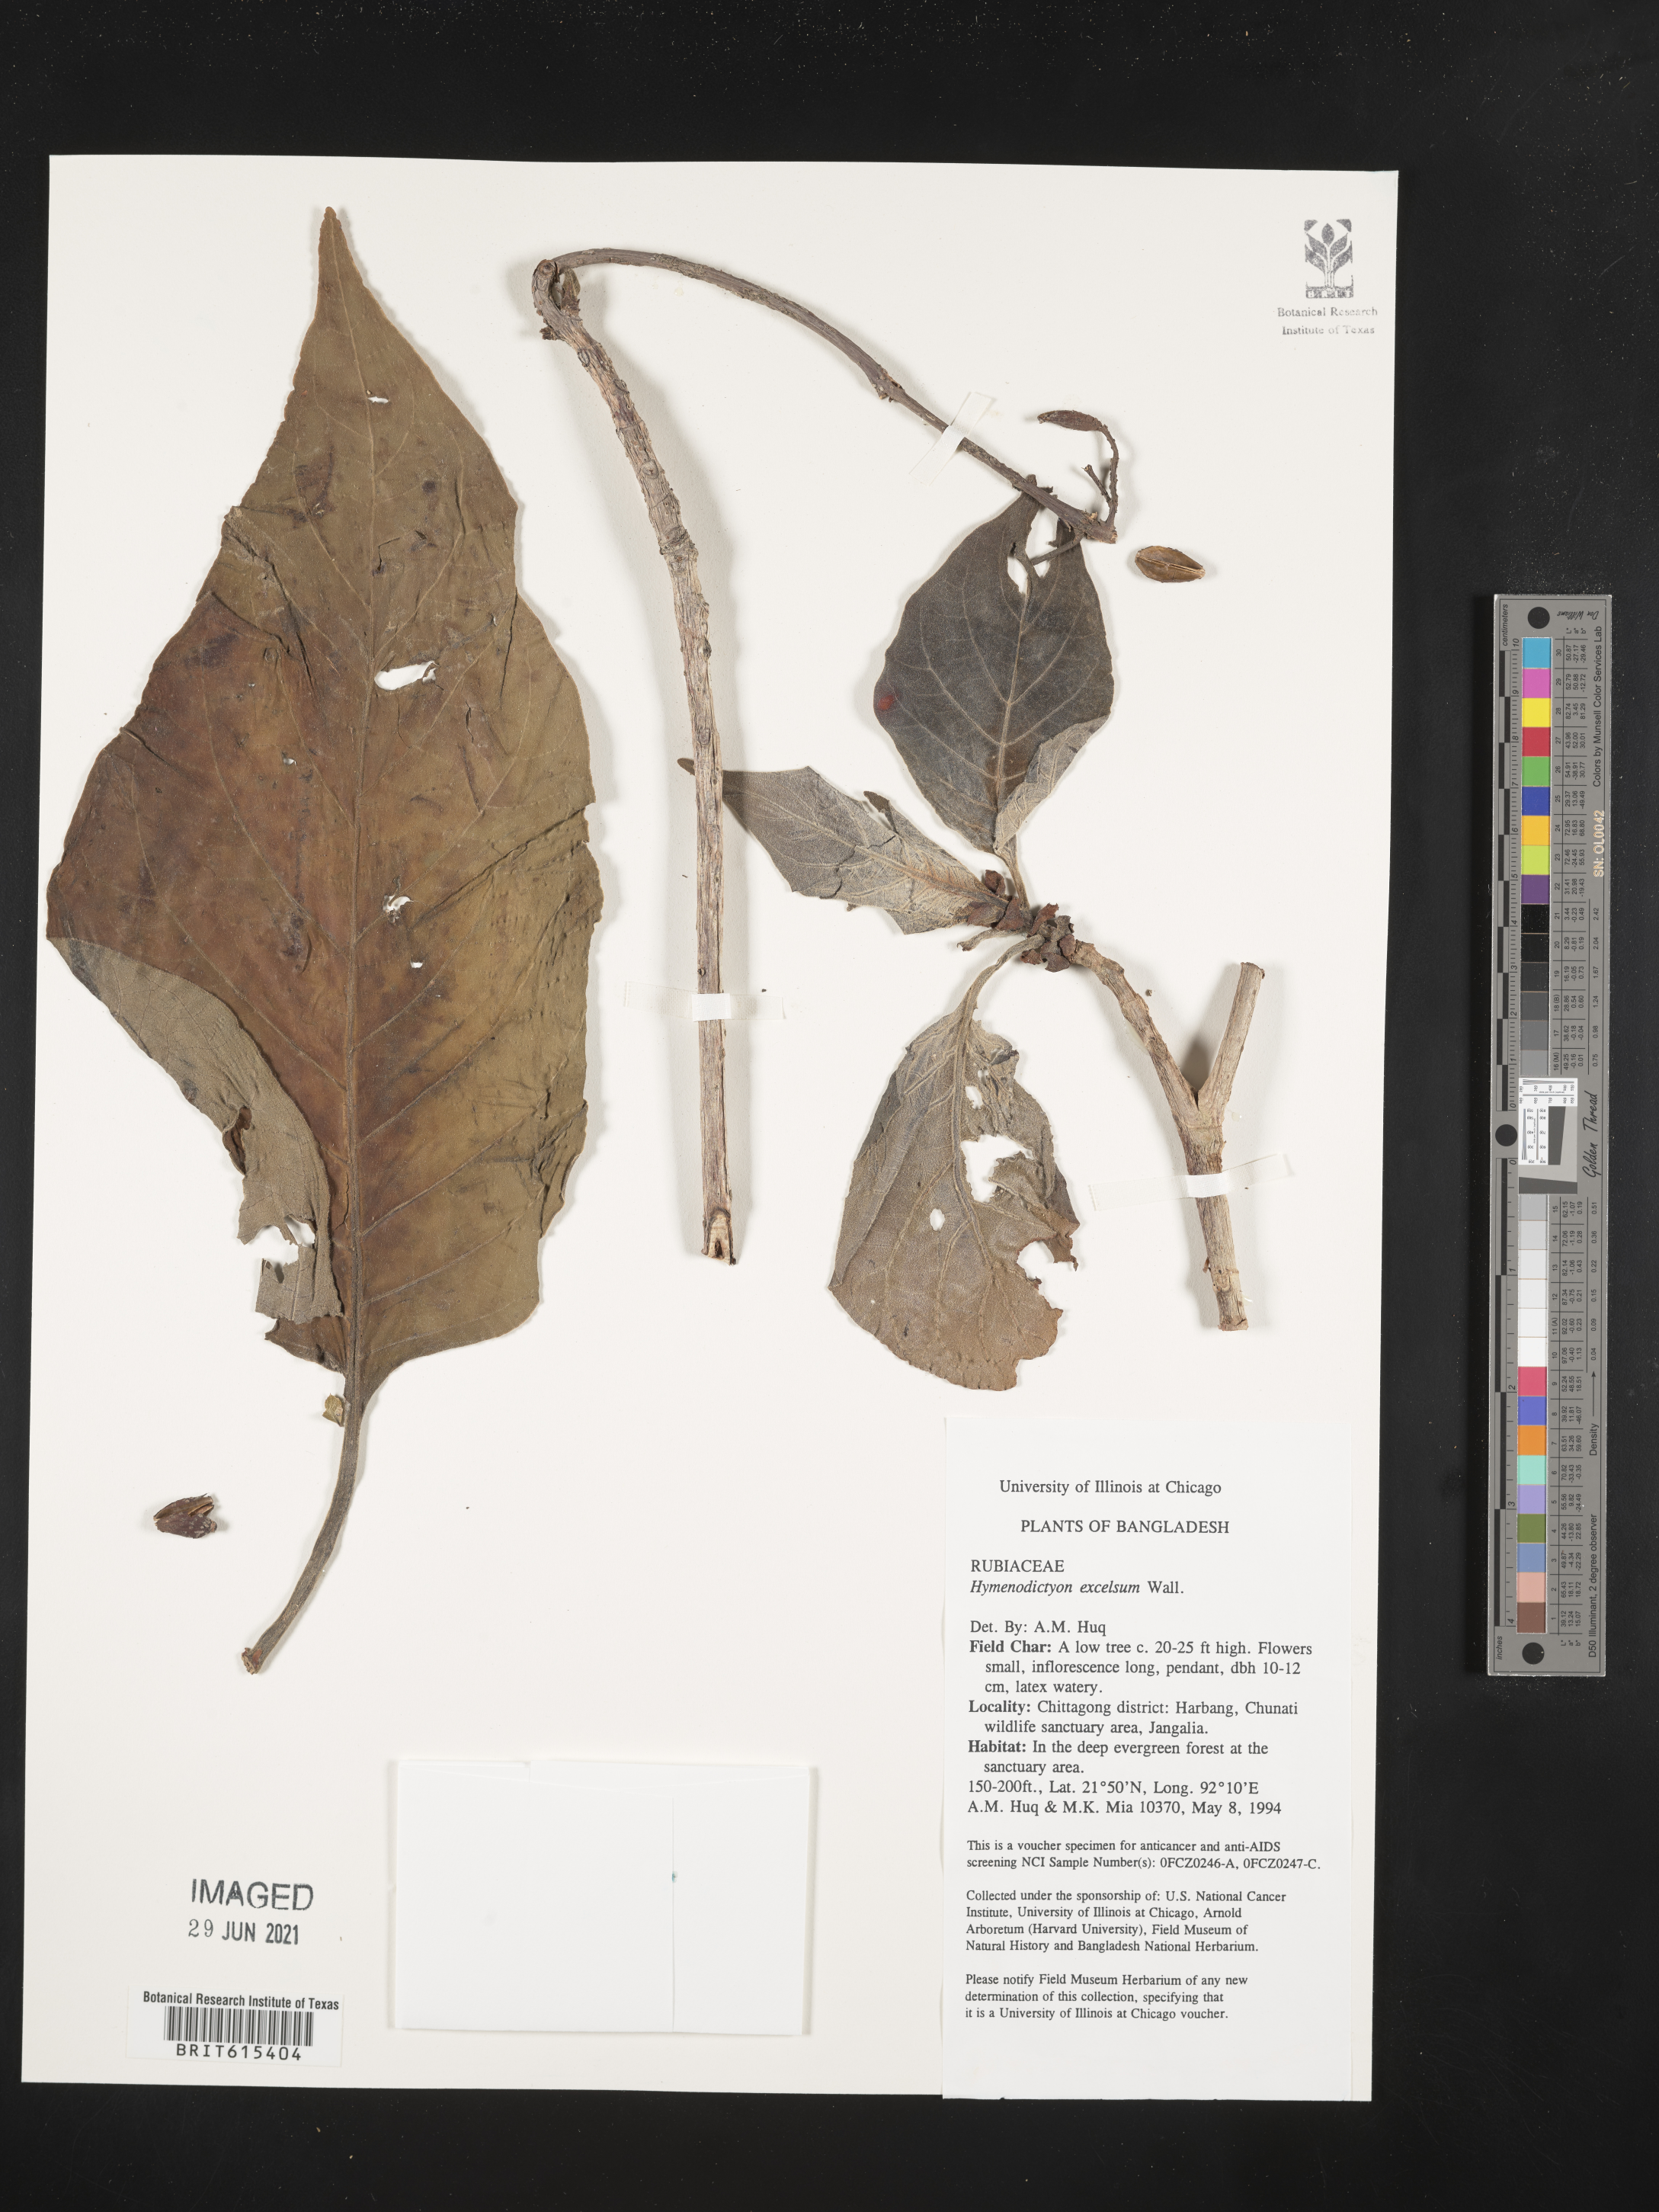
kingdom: Plantae
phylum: Tracheophyta
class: Magnoliopsida
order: Gentianales
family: Rubiaceae
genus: Hymenodictyon
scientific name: Hymenodictyon orixense
